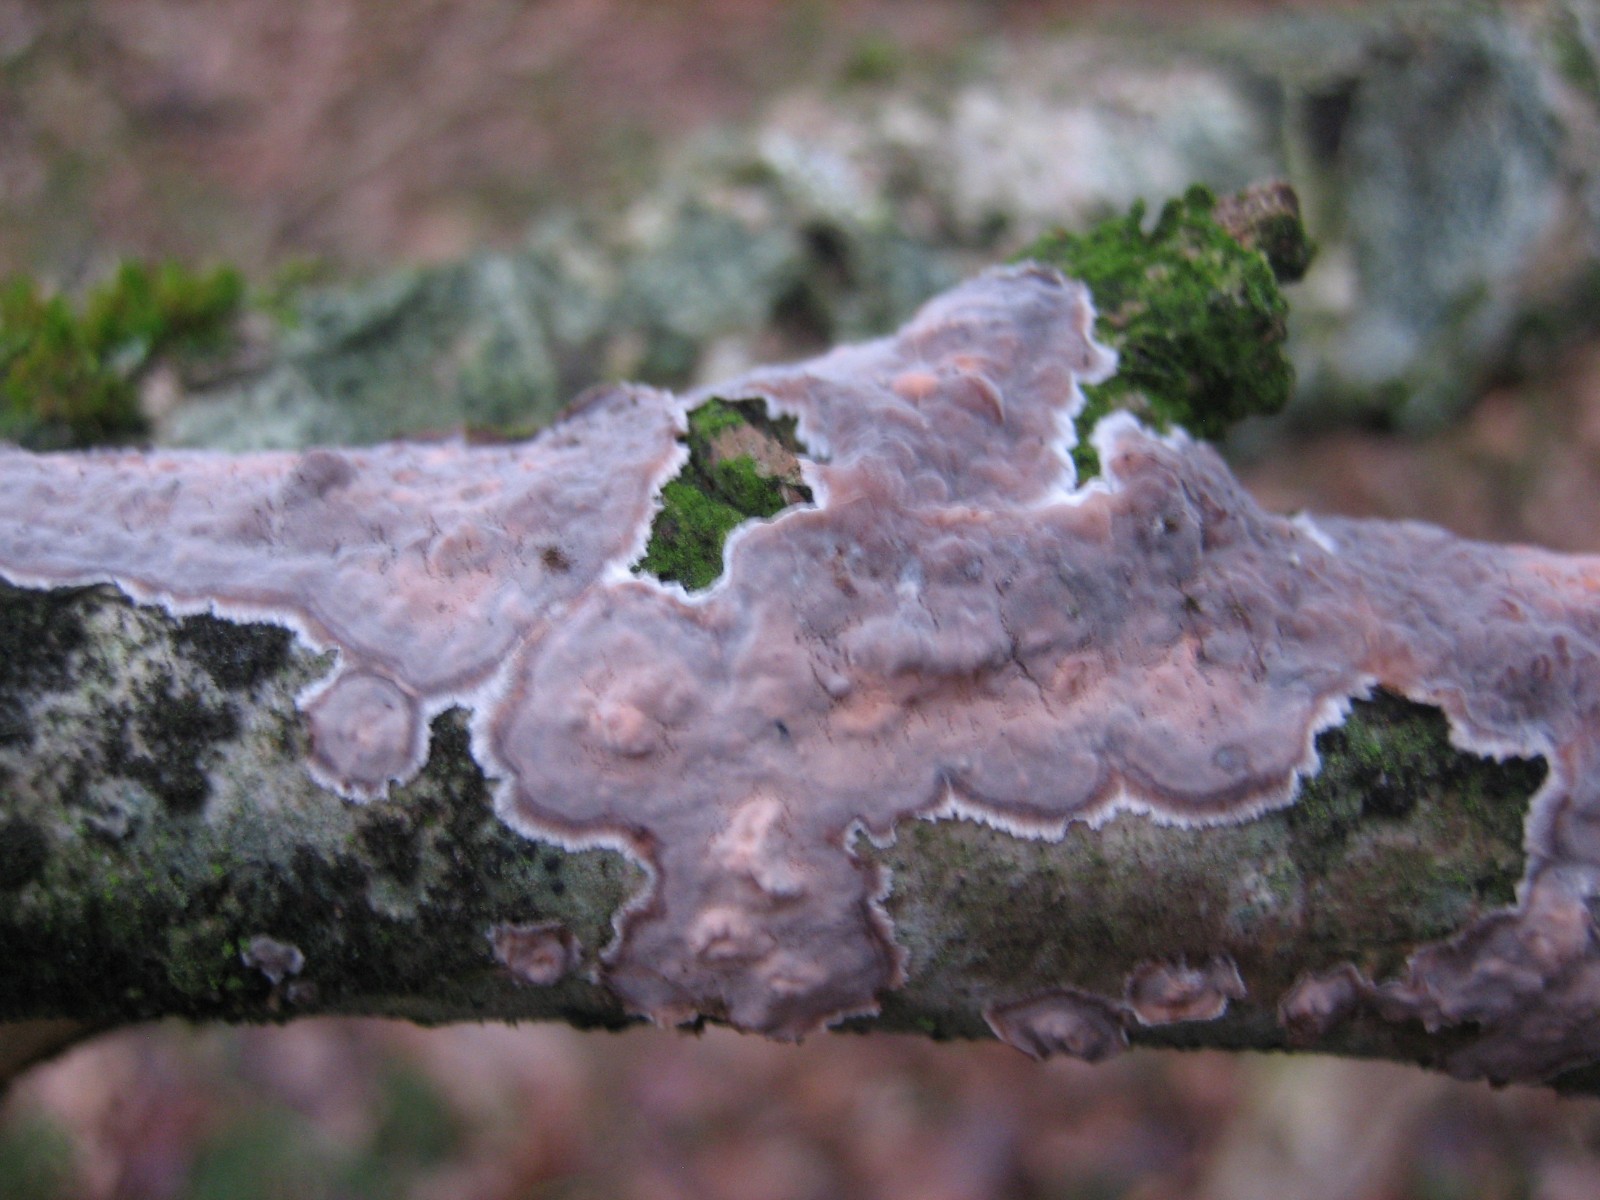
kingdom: Fungi
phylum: Basidiomycota
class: Agaricomycetes
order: Russulales
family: Peniophoraceae
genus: Peniophora
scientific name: Peniophora quercina
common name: ege-voksskind
